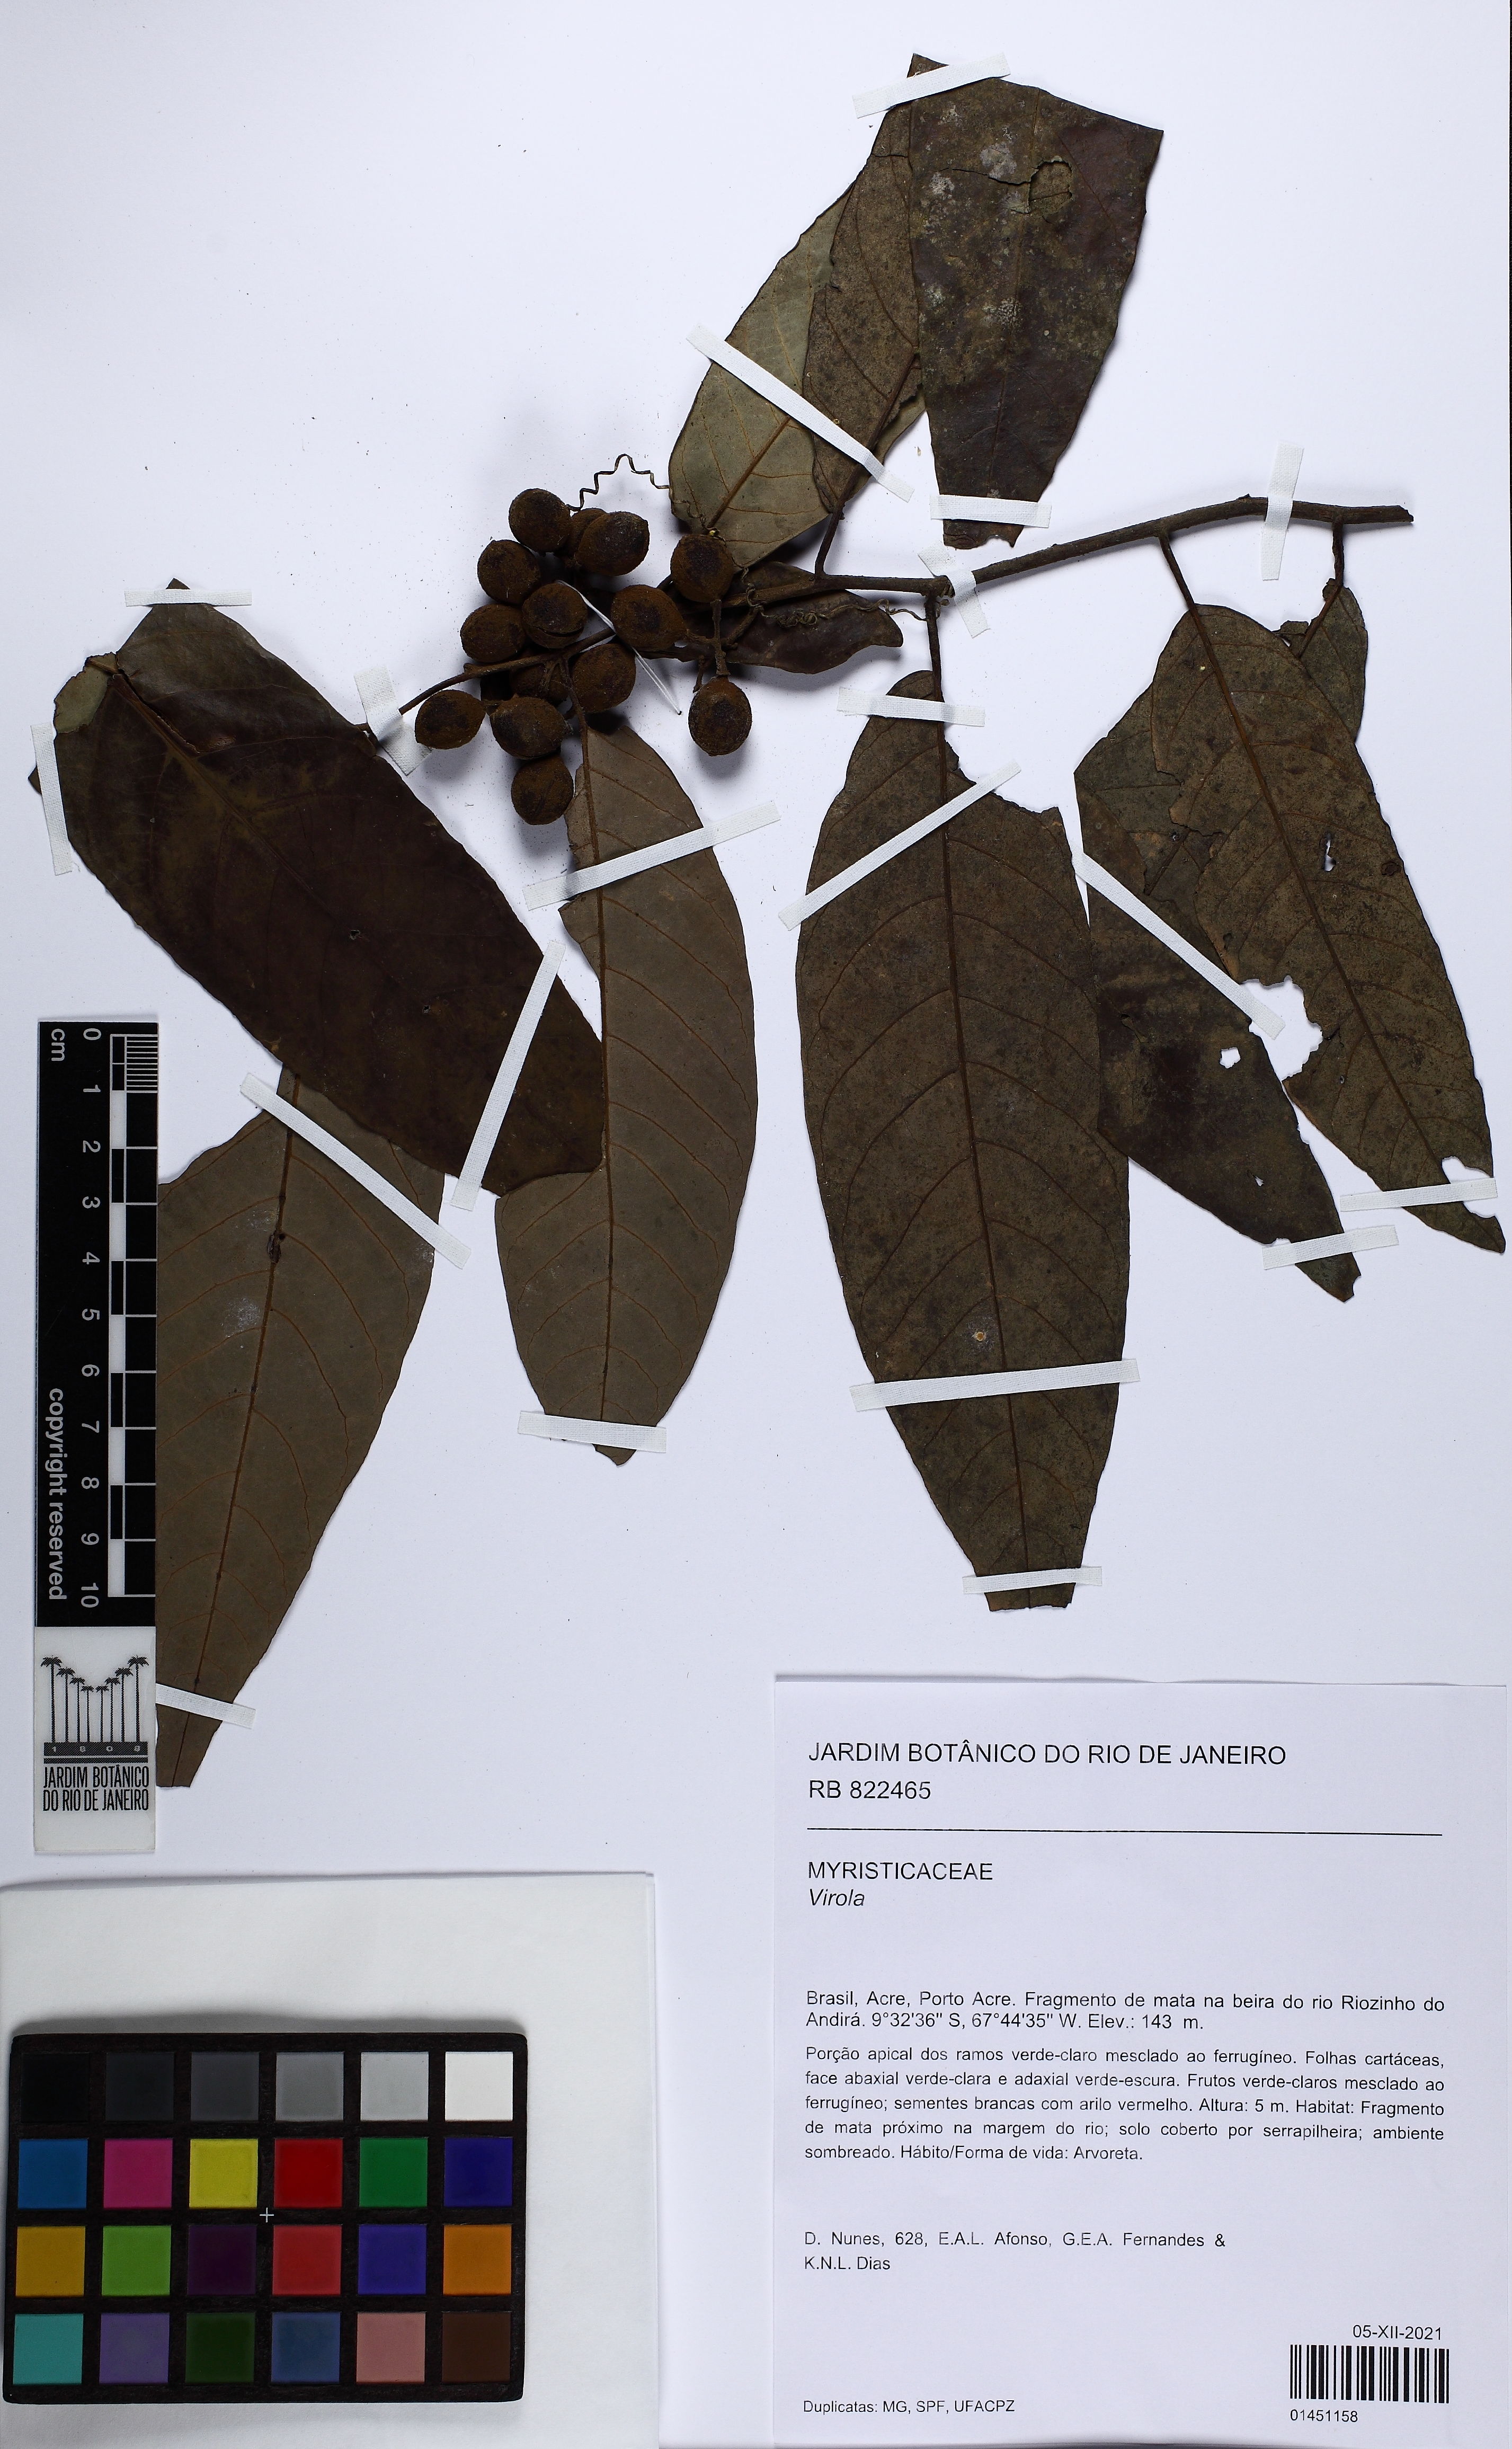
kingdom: Plantae
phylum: Tracheophyta
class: Magnoliopsida
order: Magnoliales
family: Myristicaceae
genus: Virola
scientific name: Virola elongata
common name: Sacred virola
